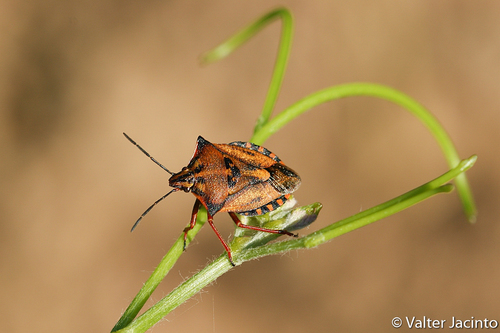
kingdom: Animalia
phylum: Arthropoda
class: Insecta
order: Hemiptera
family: Pentatomidae
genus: Carpocoris
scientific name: Carpocoris mediterraneus
